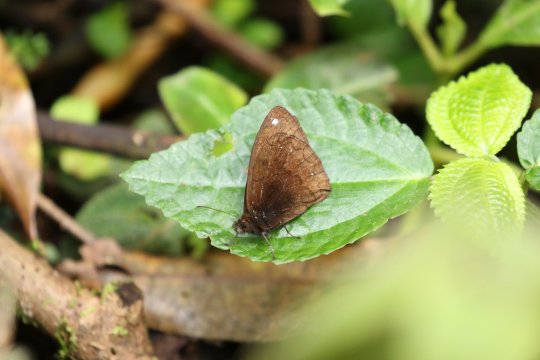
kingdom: Animalia
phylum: Arthropoda
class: Insecta
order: Lepidoptera
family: Nymphalidae
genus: Forsterinaria
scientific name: Forsterinaria rustica
